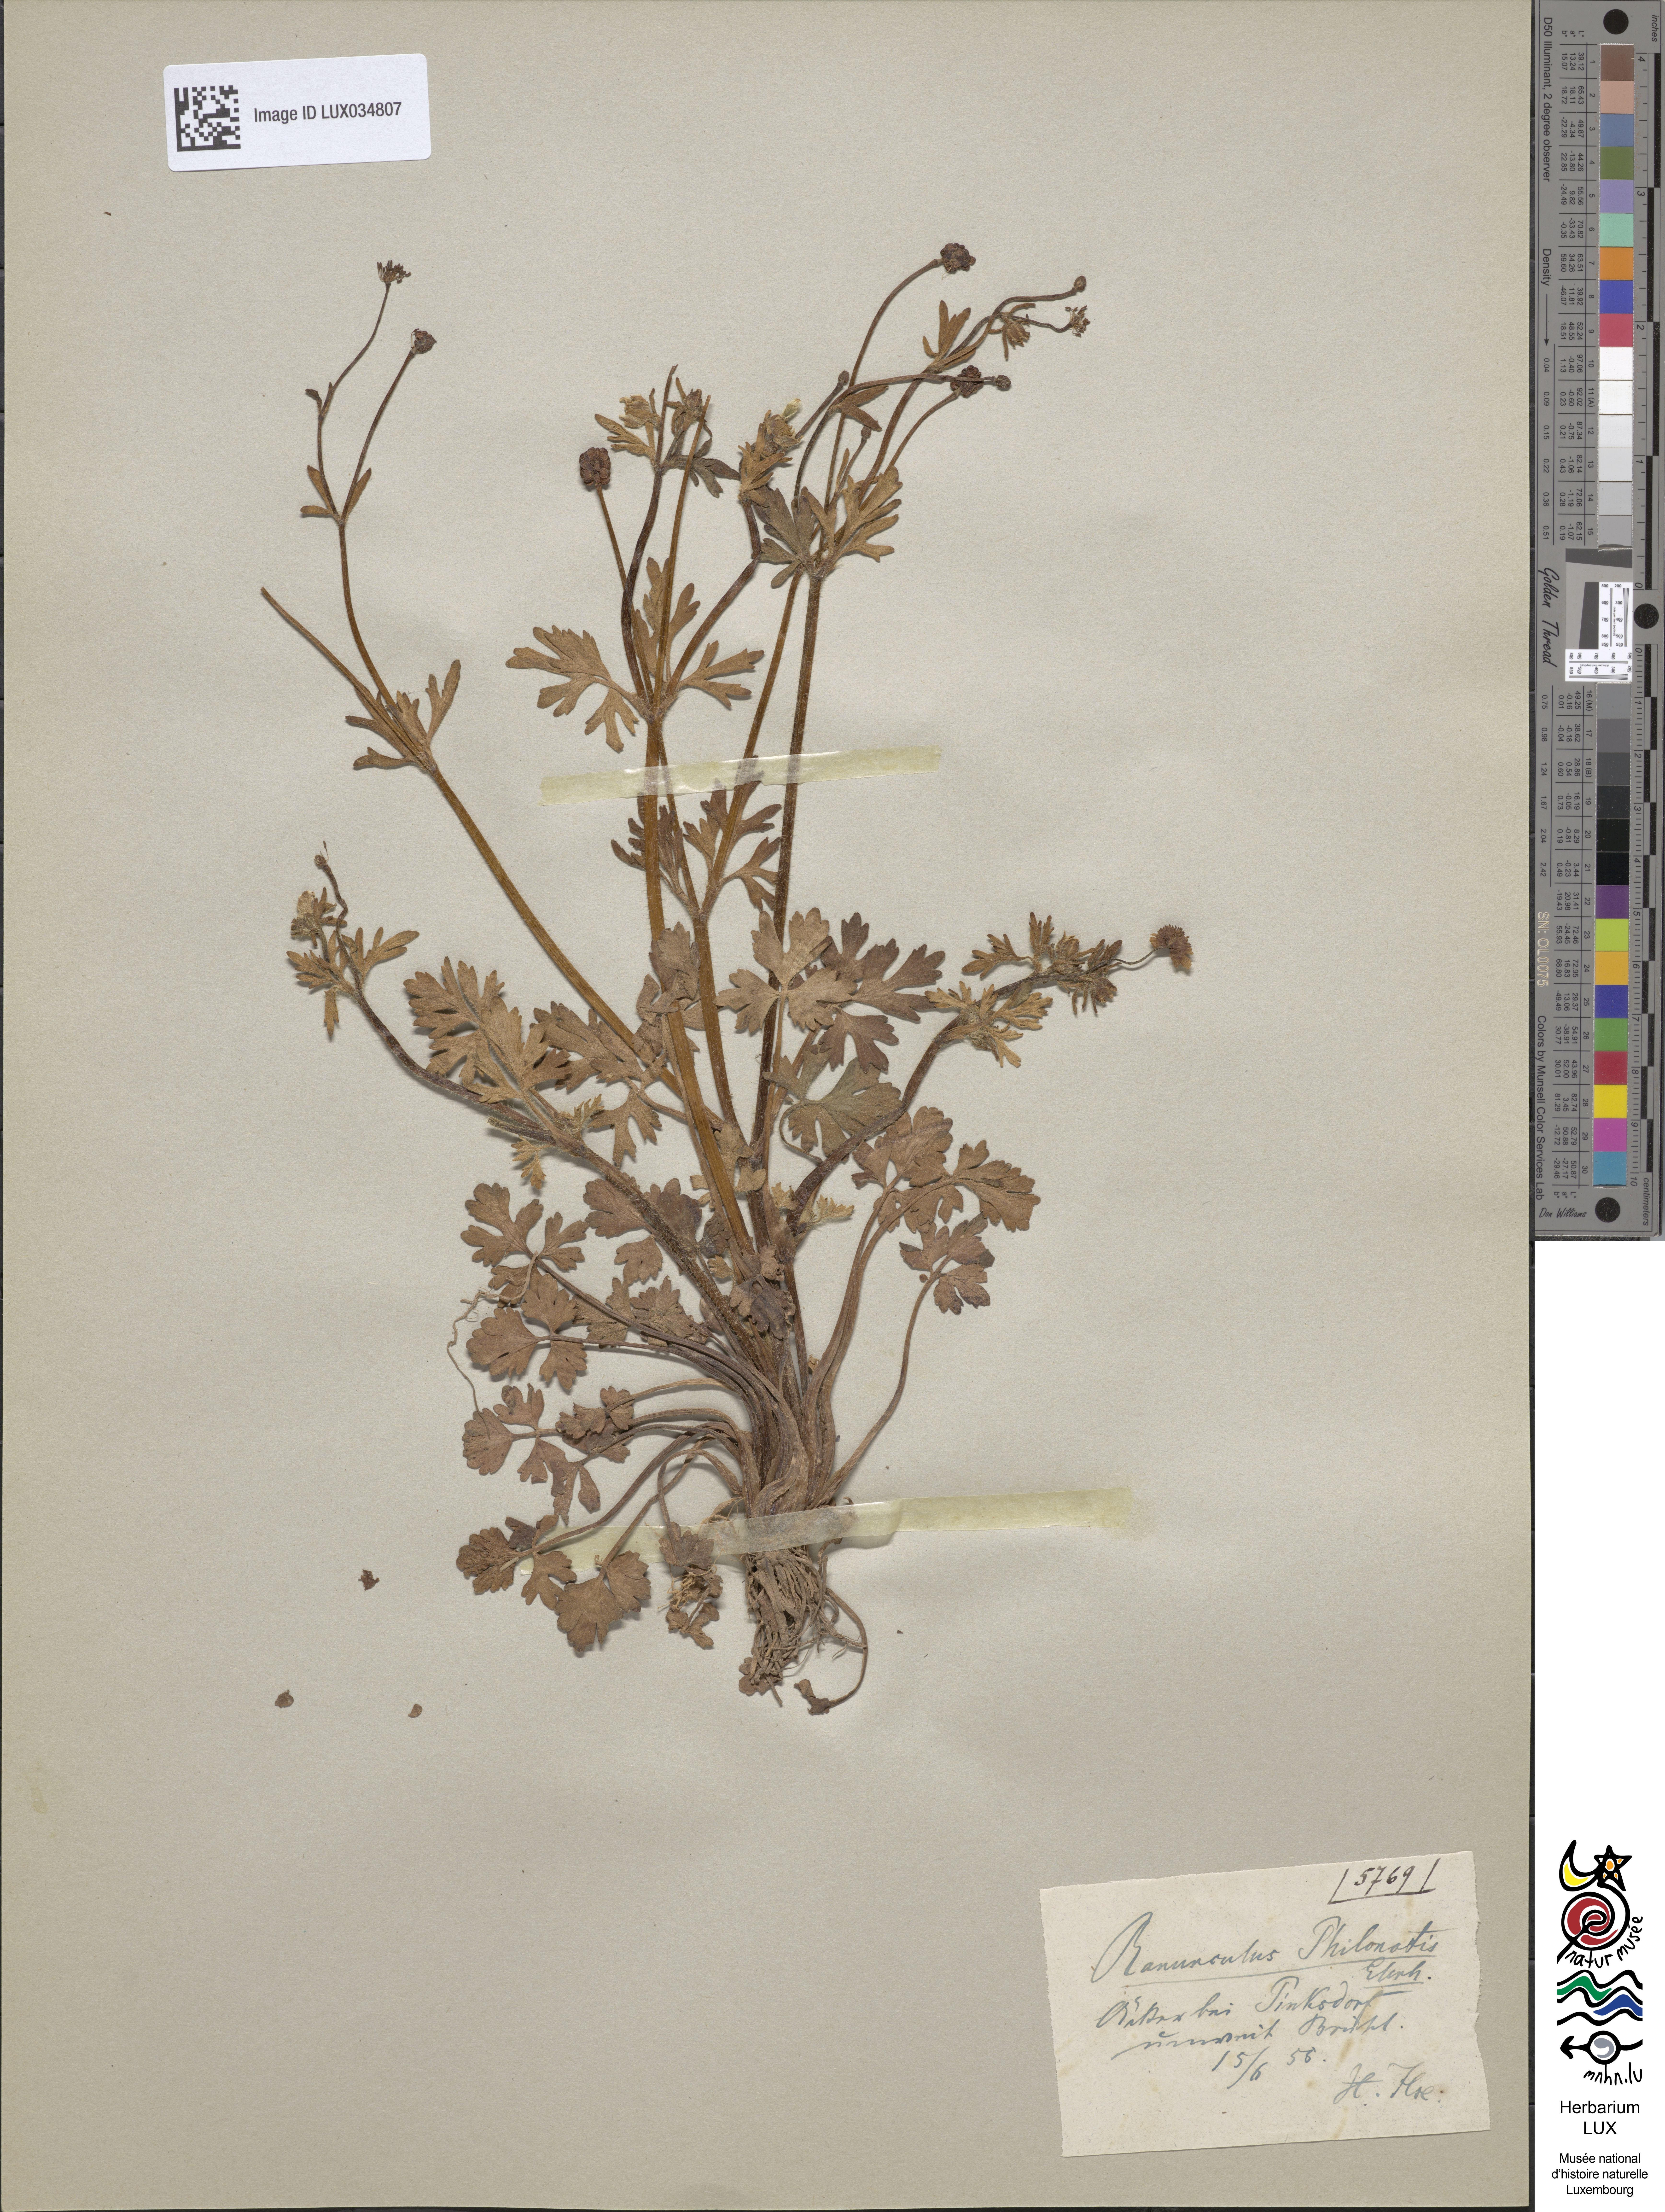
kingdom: Plantae
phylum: Tracheophyta
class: Magnoliopsida
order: Ranunculales
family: Ranunculaceae
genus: Ranunculus
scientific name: Ranunculus sardous
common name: Hairy buttercup
